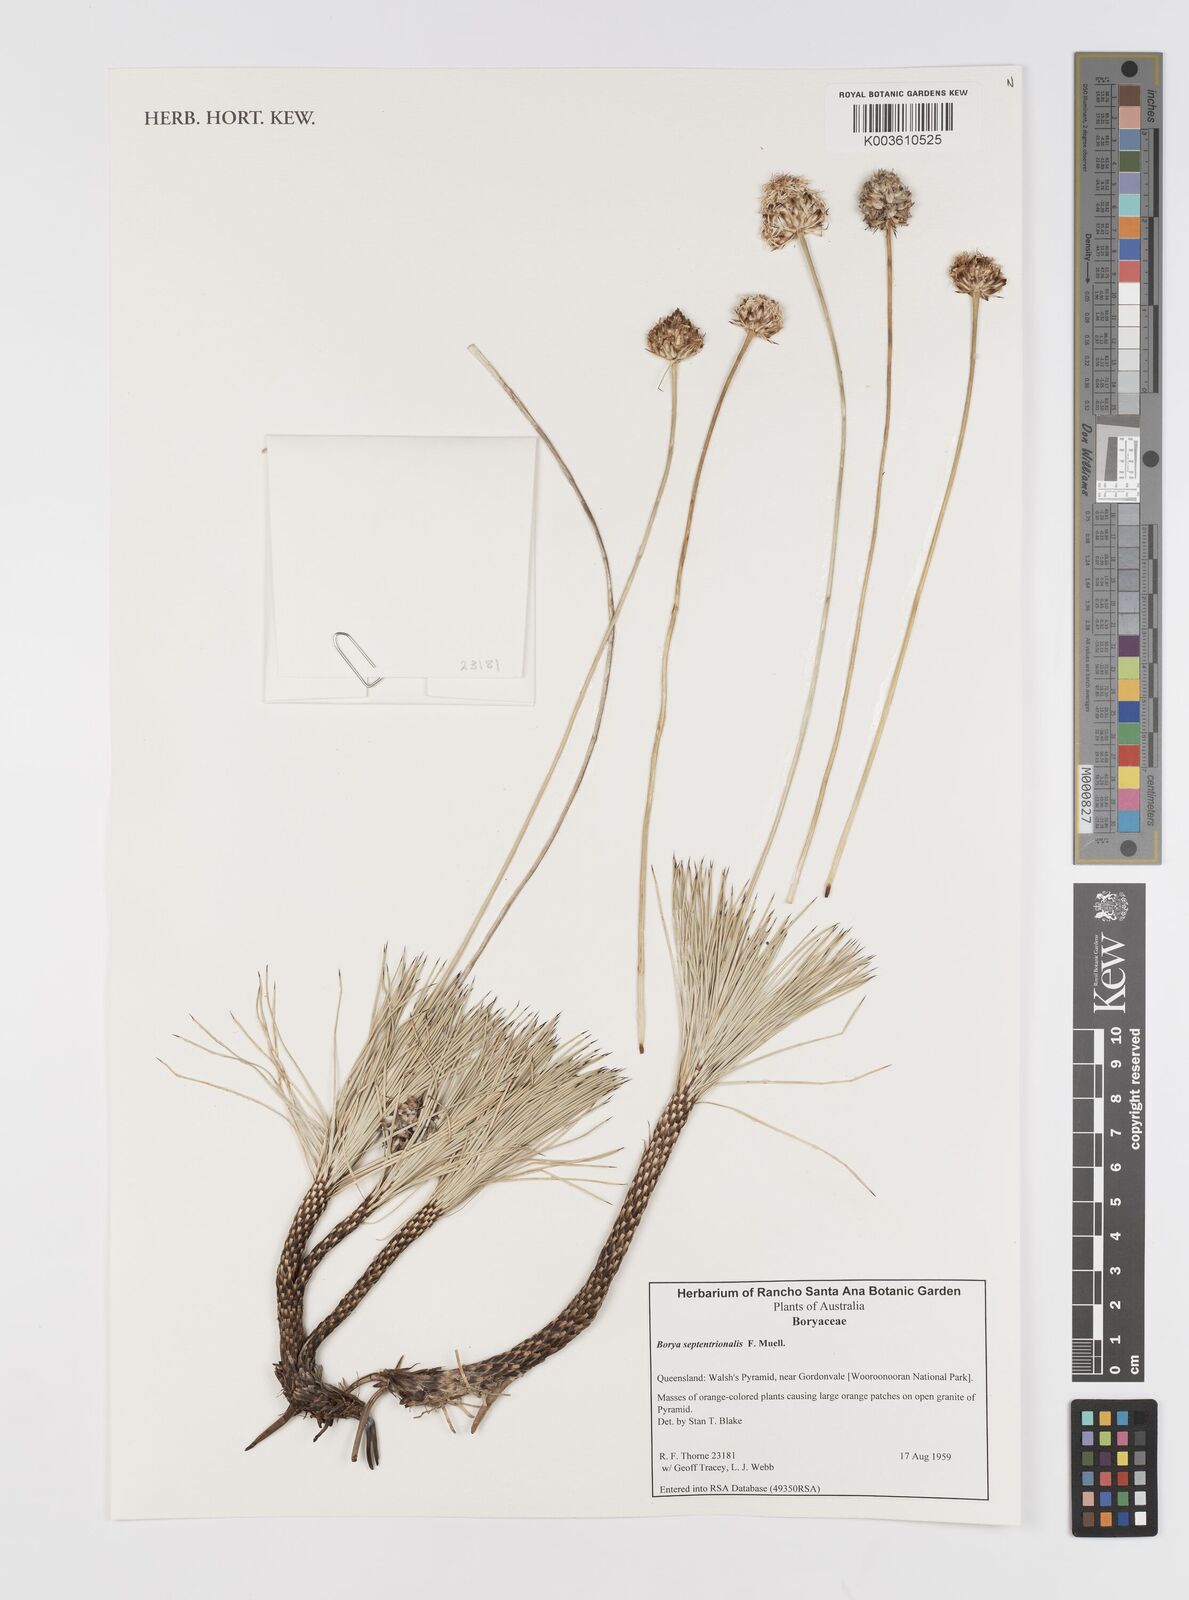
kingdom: Plantae
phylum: Tracheophyta
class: Liliopsida
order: Asparagales
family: Boryaceae
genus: Borya
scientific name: Borya septentrionalis
